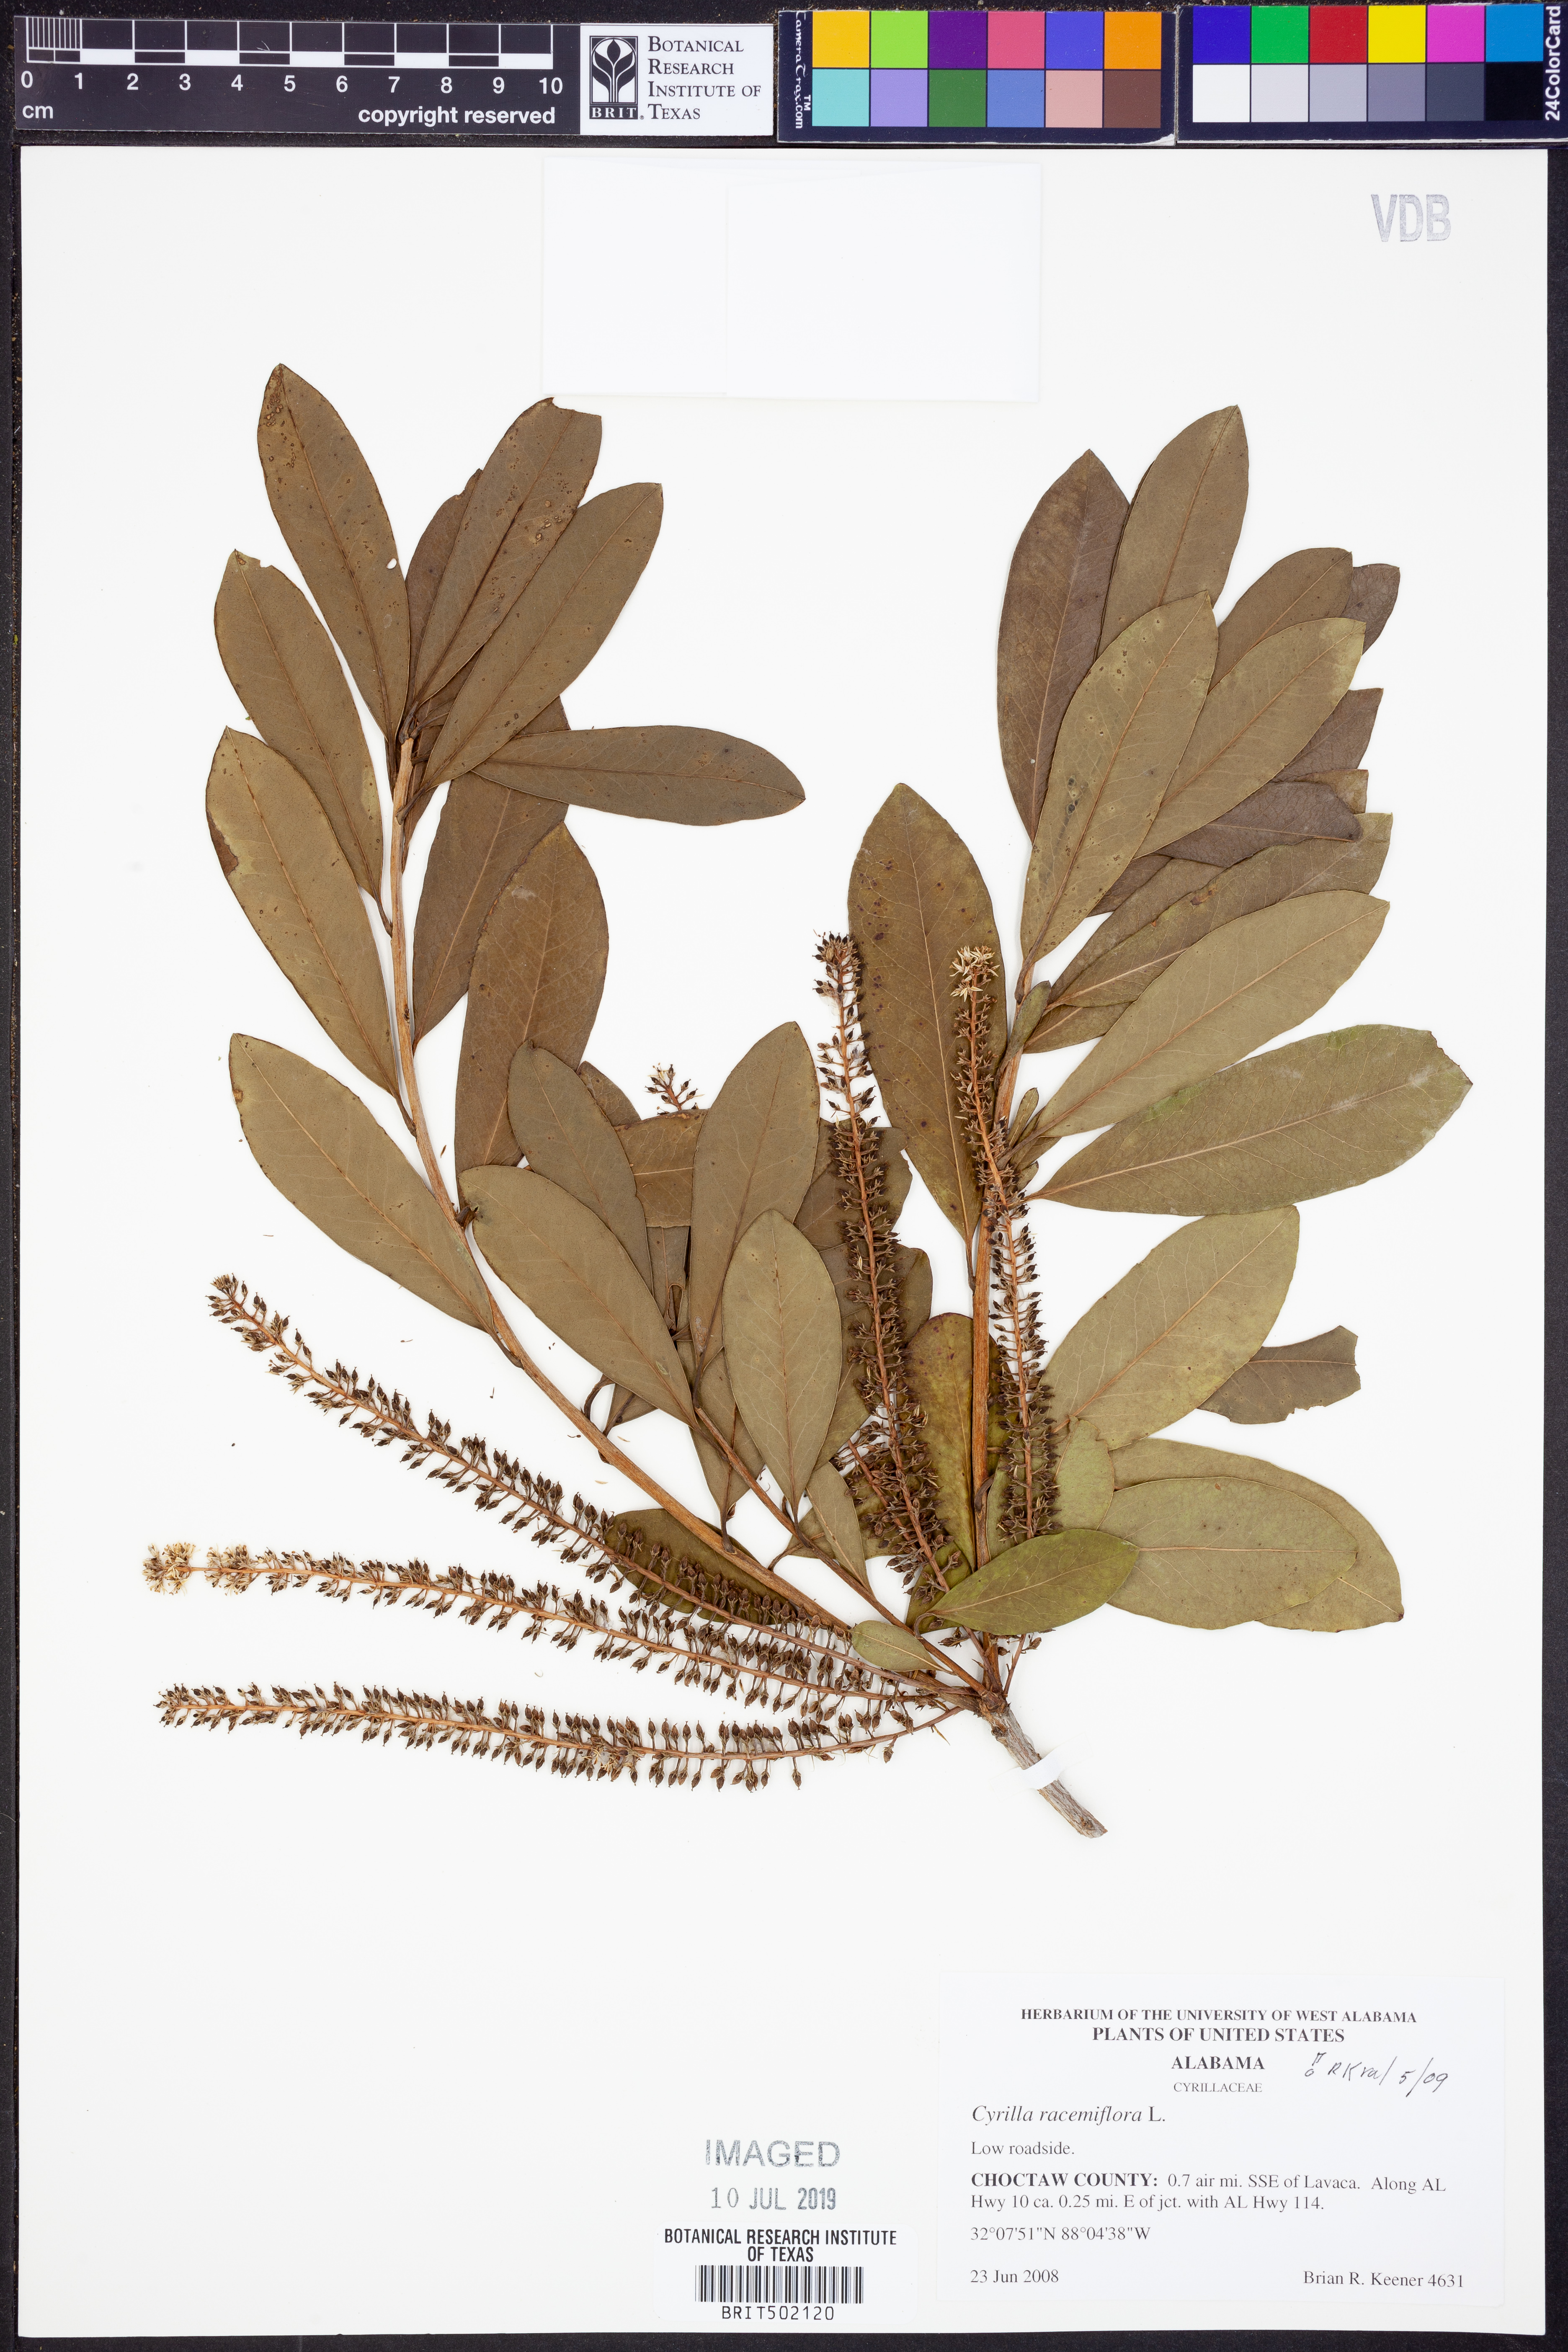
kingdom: Plantae
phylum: Tracheophyta
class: Magnoliopsida
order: Ericales
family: Cyrillaceae
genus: Cyrilla
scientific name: Cyrilla racemiflora
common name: Black titi
